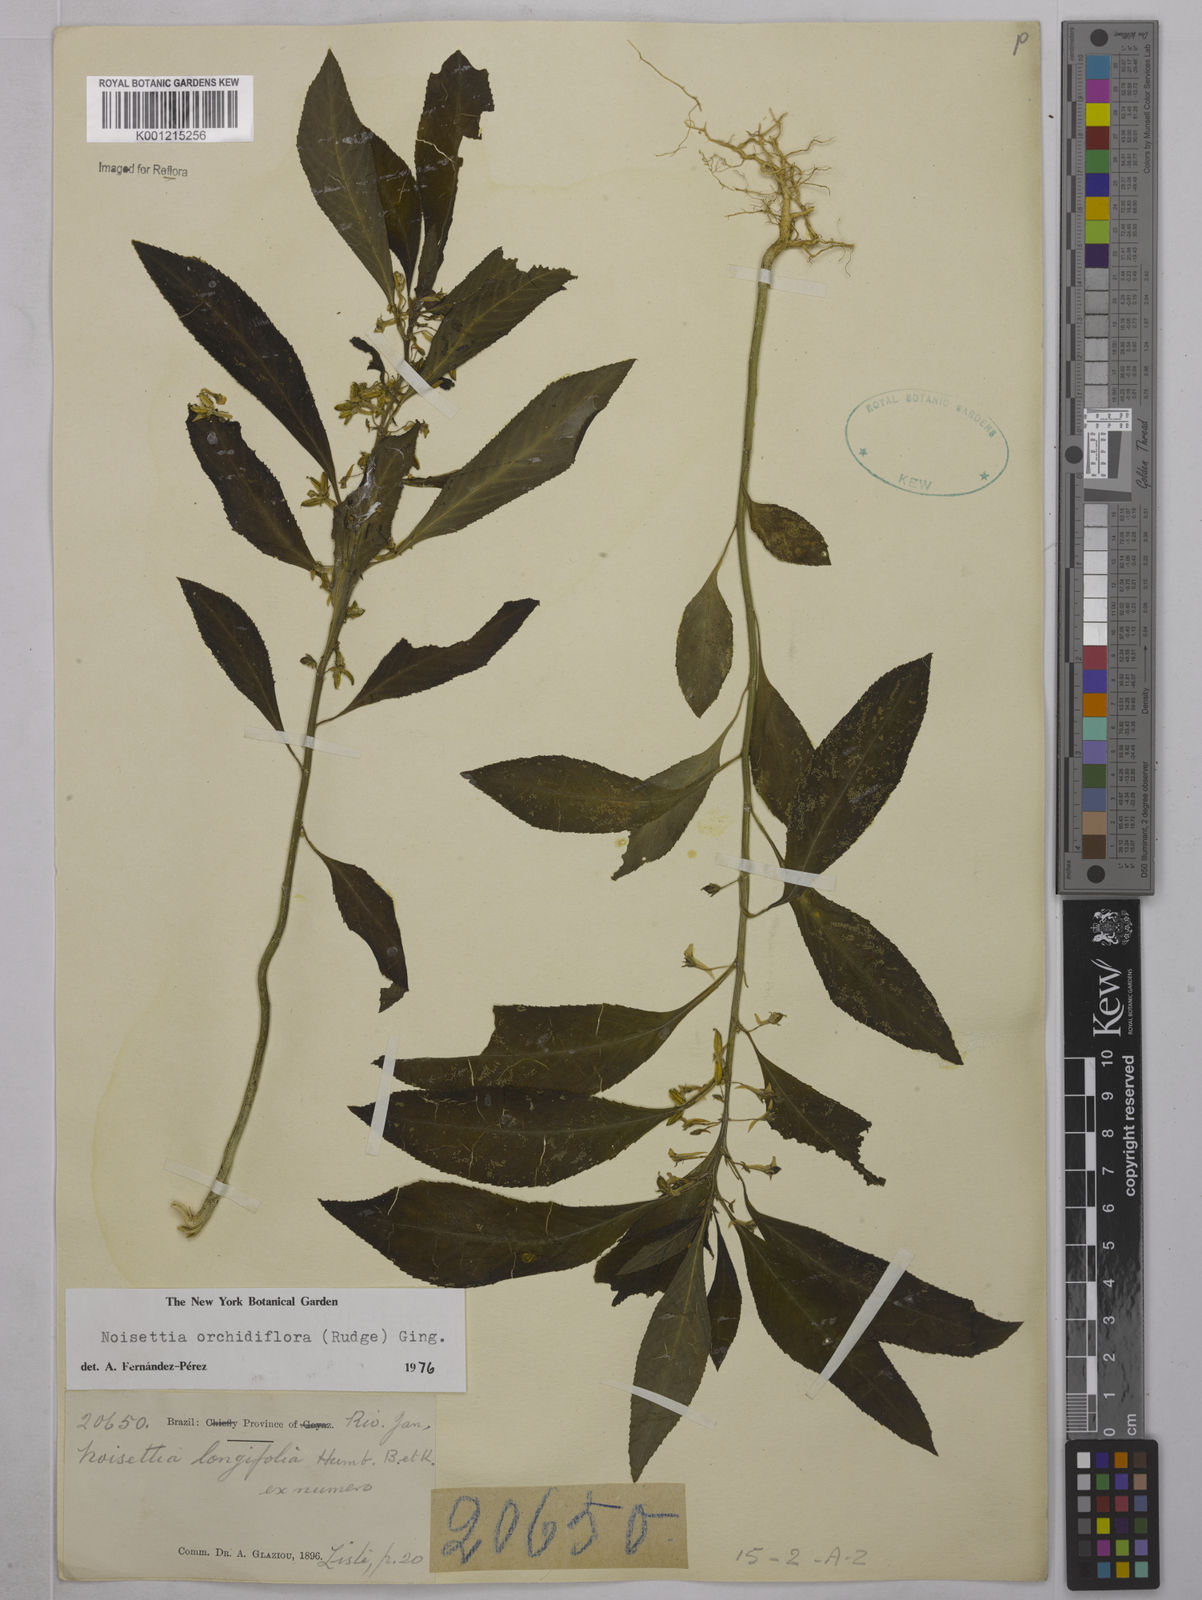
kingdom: Plantae
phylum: Tracheophyta
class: Magnoliopsida
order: Malpighiales
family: Violaceae
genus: Noisettia
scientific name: Noisettia orchidiflora
